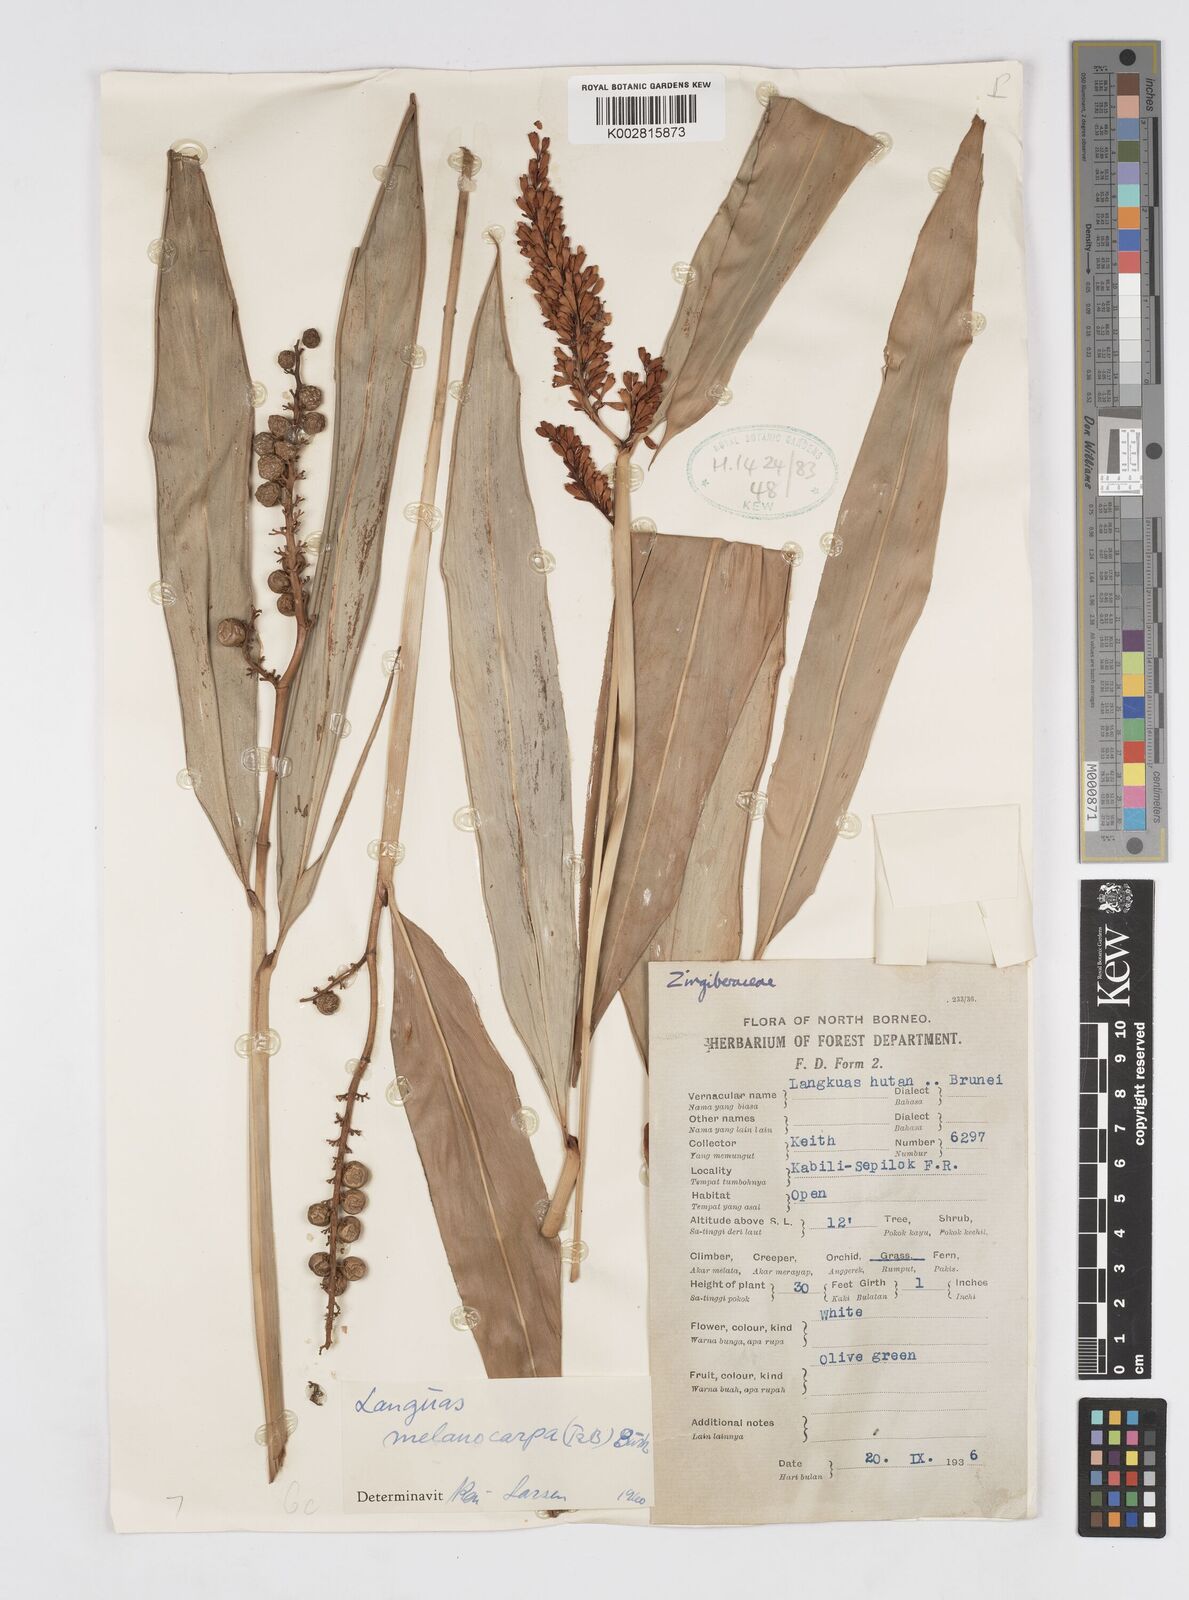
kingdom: Plantae
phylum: Tracheophyta
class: Liliopsida
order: Zingiberales
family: Zingiberaceae
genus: Alpinia
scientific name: Alpinia aquatica
